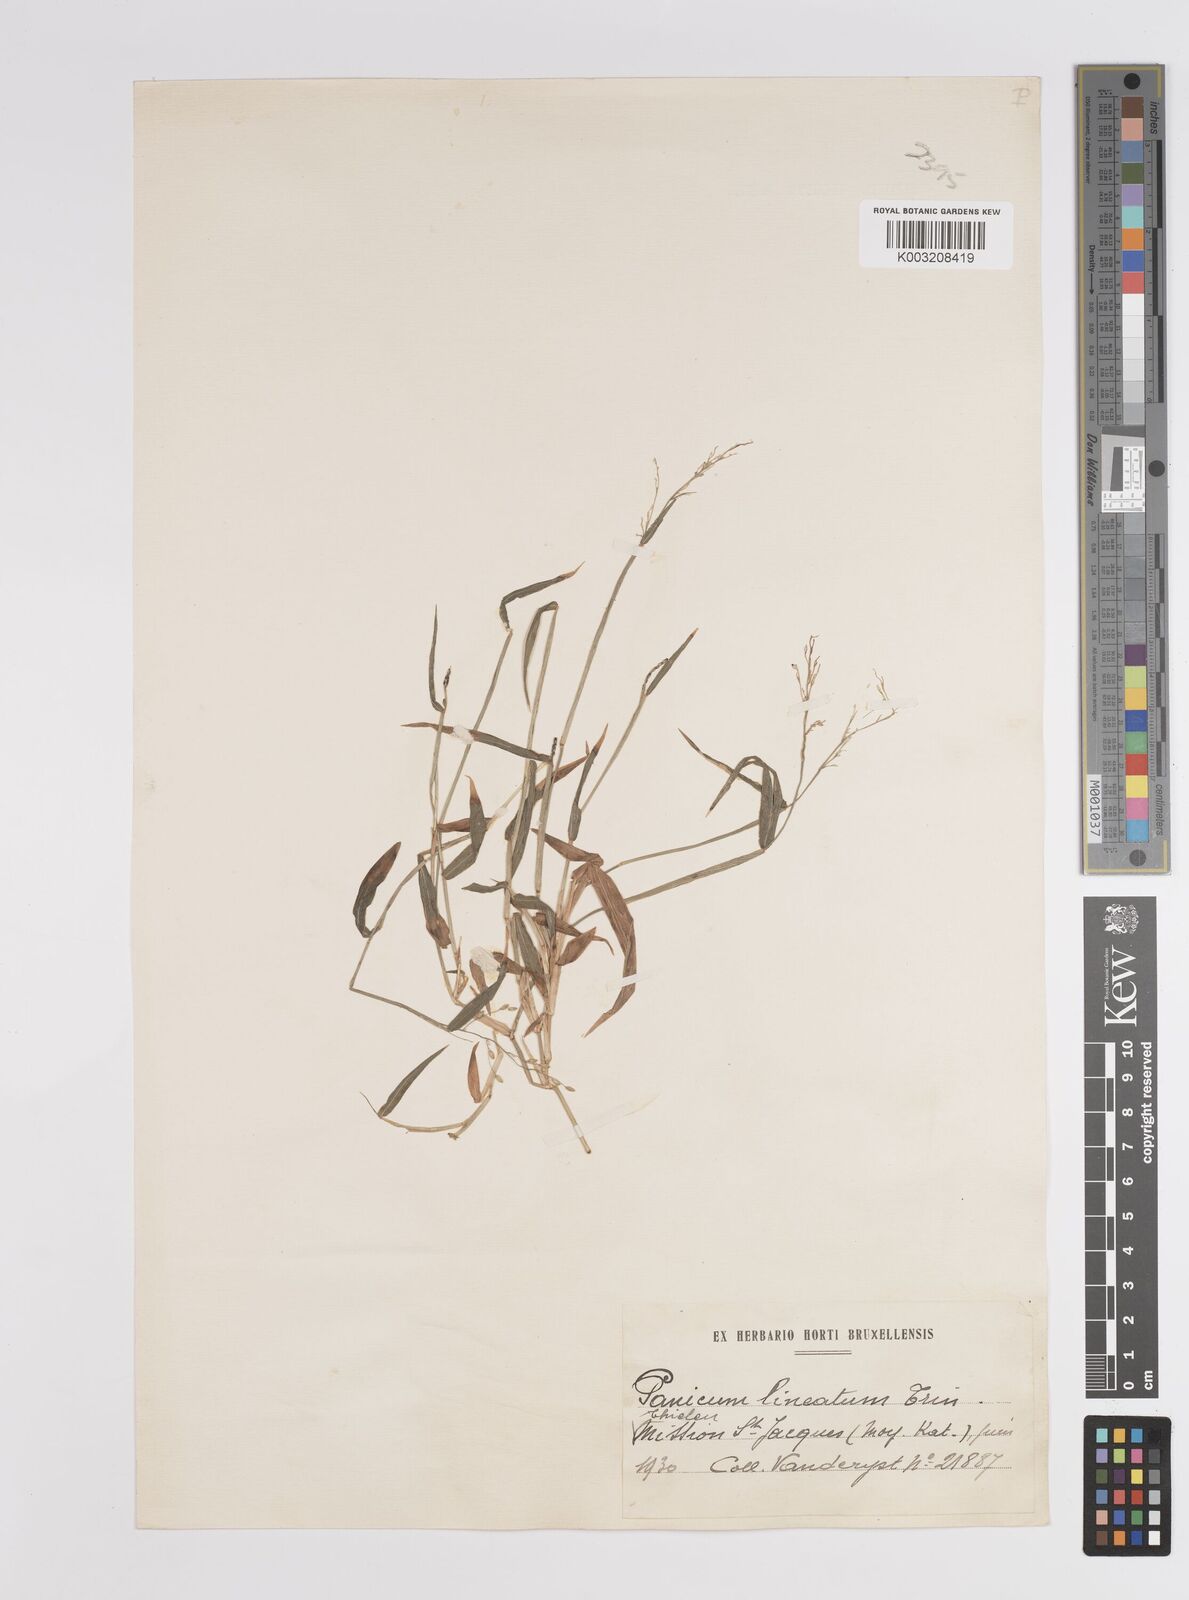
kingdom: Plantae
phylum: Tracheophyta
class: Liliopsida
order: Poales
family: Poaceae
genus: Adenochloa
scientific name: Adenochloa sadinii
